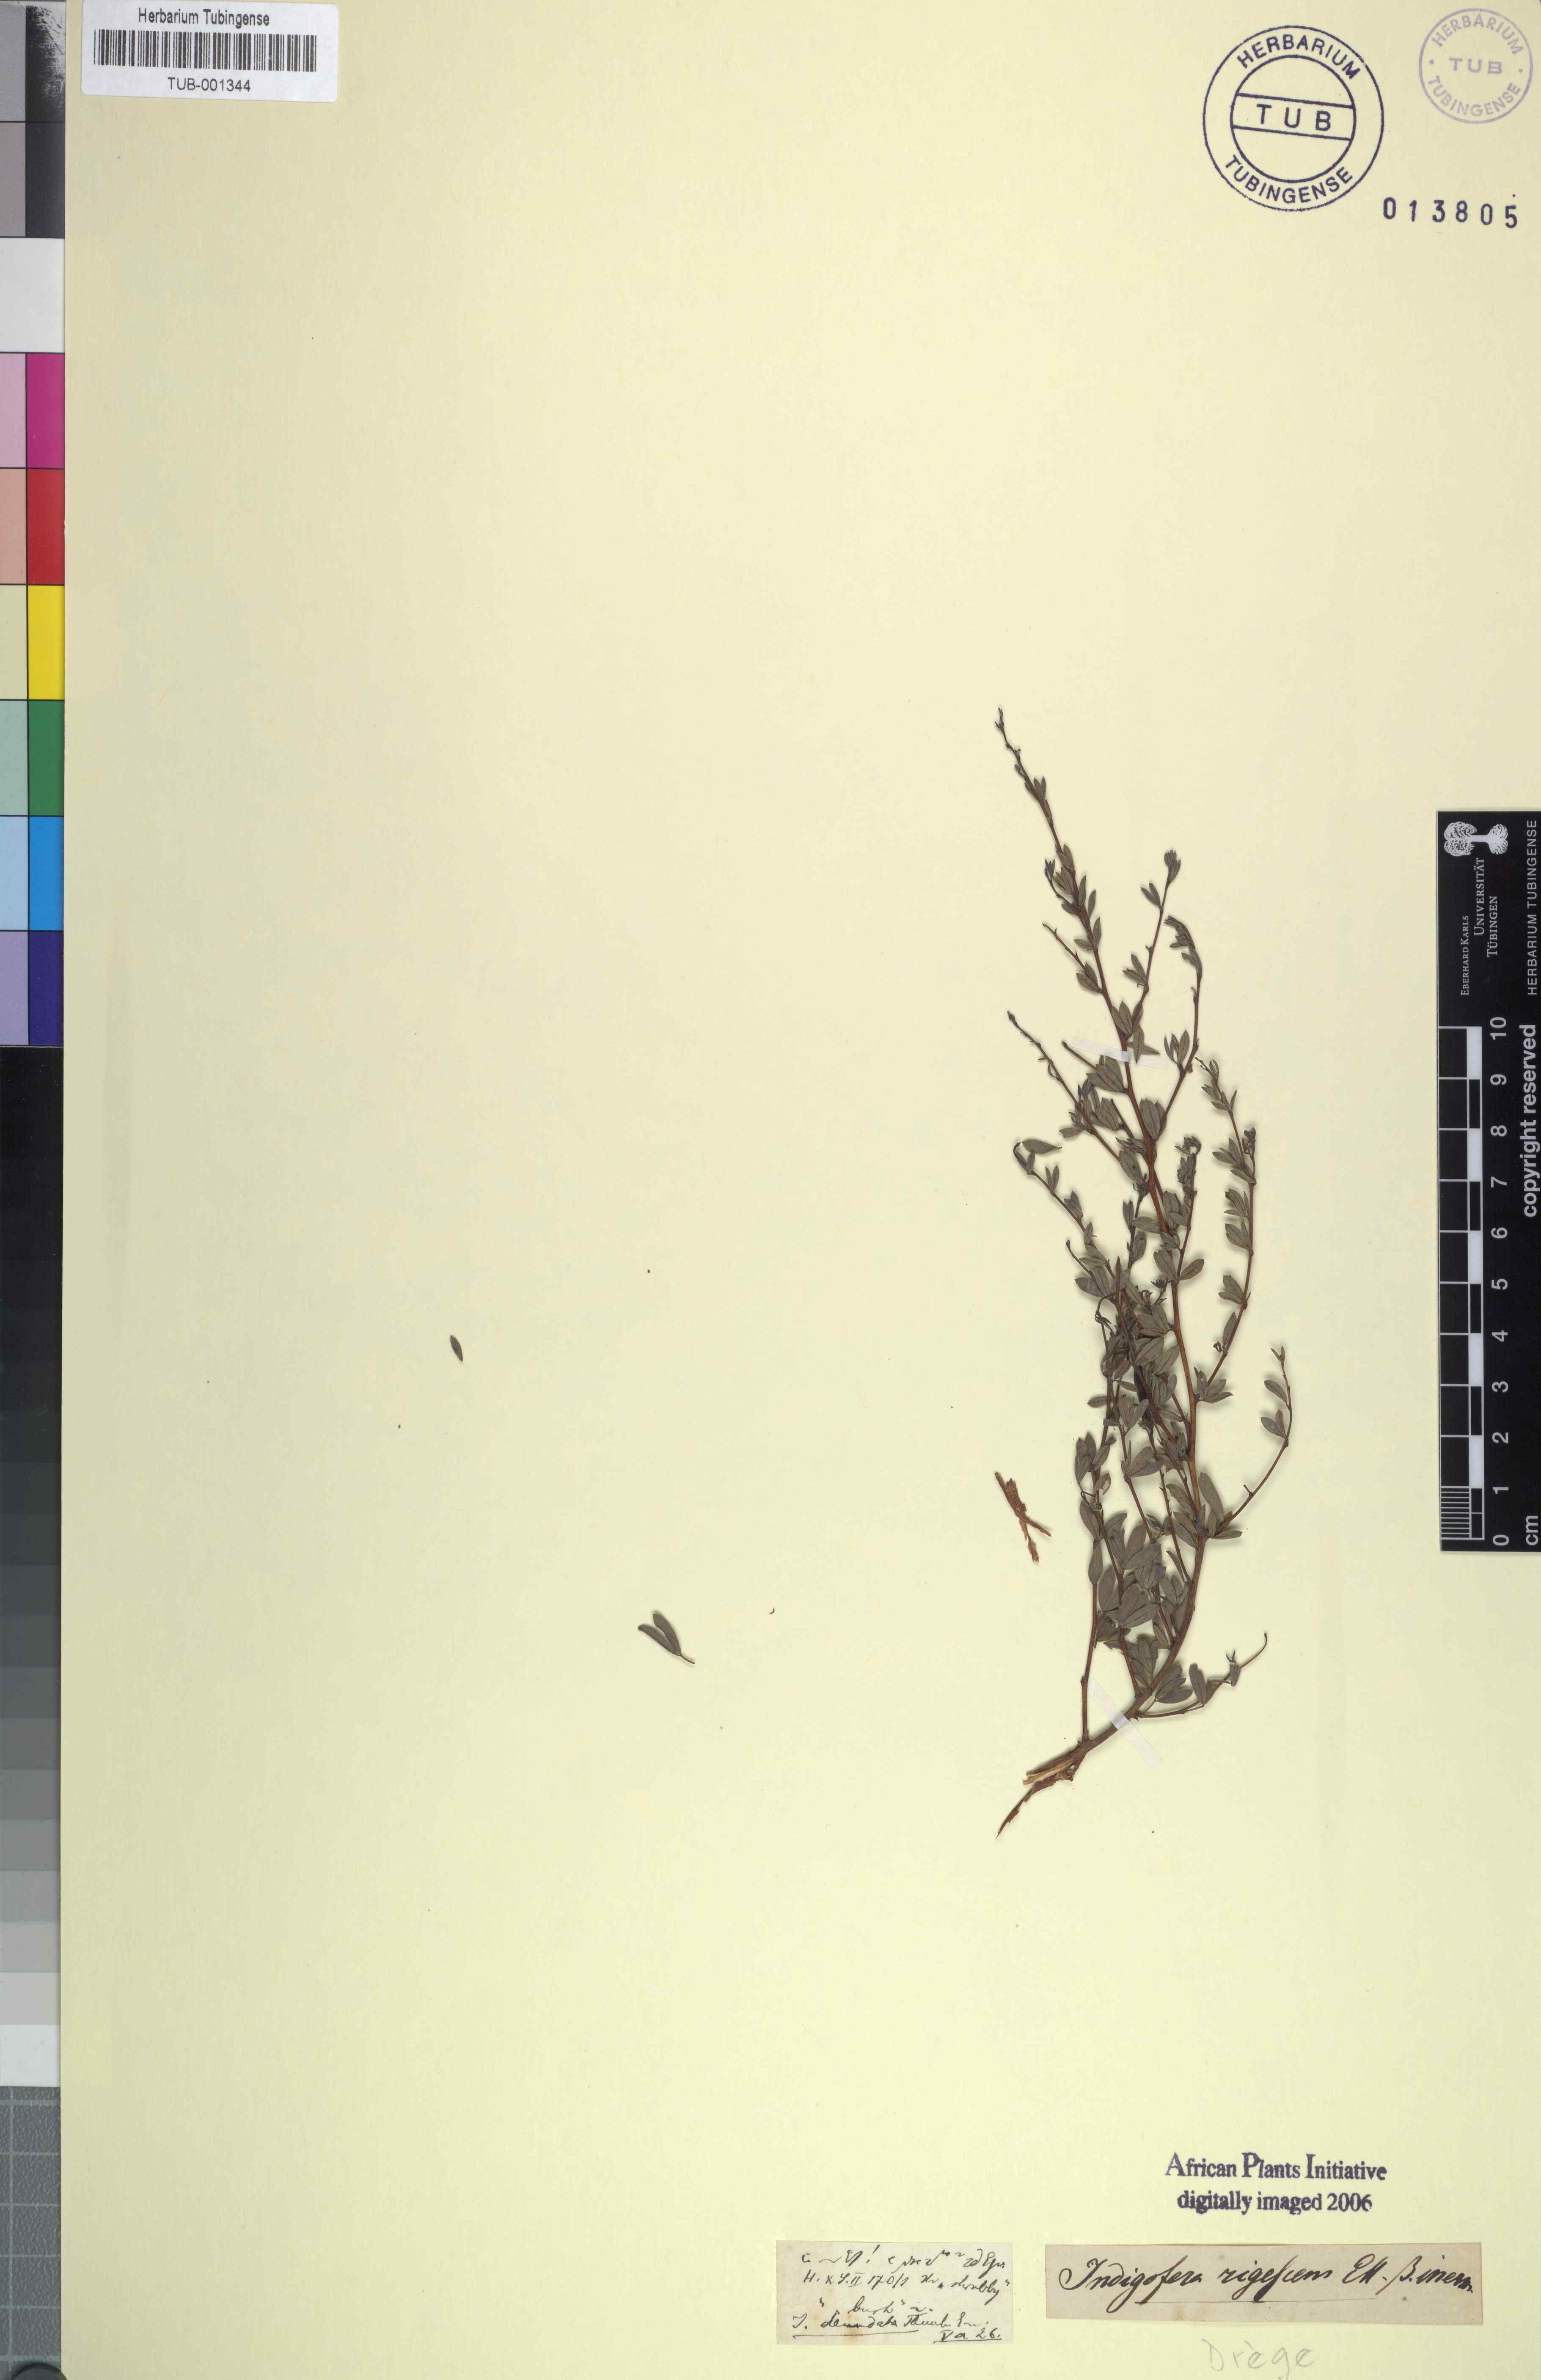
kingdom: Plantae
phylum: Tracheophyta
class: Magnoliopsida
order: Fabales
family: Fabaceae
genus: Indigofera
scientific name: Indigofera denudata
